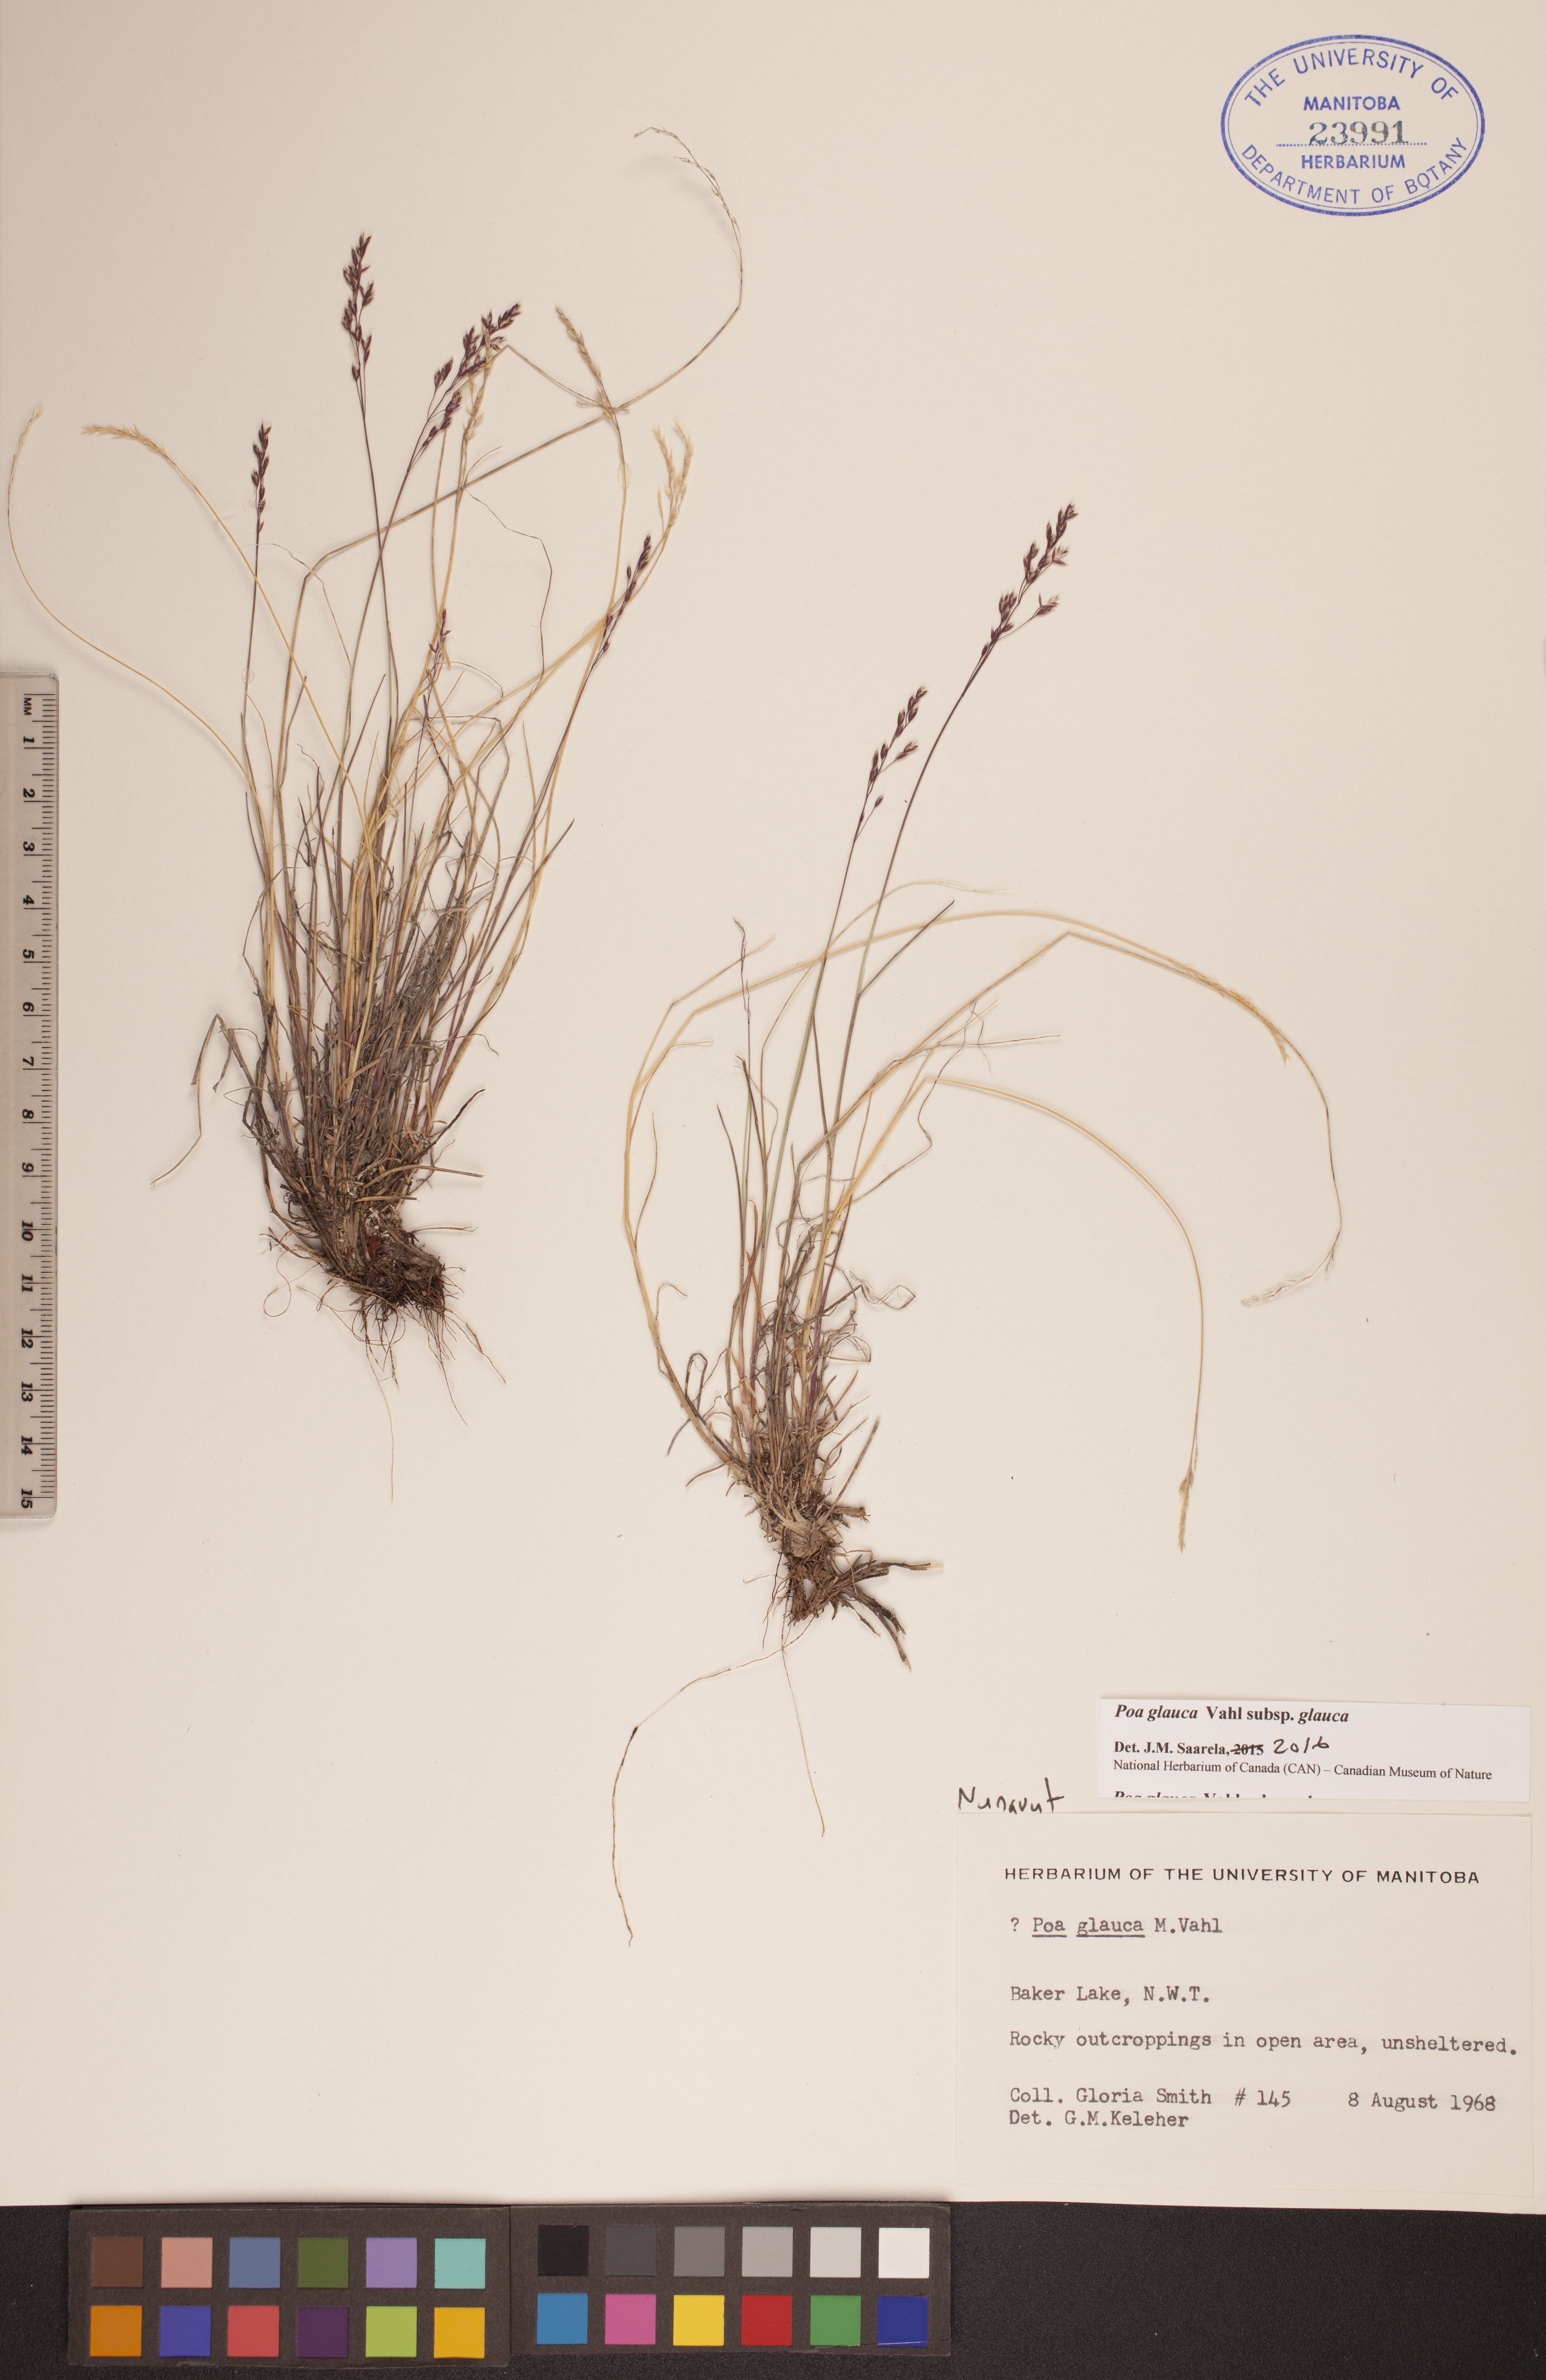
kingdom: Plantae
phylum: Tracheophyta
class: Liliopsida
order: Poales
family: Poaceae
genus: Poa
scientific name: Poa glauca
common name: Glaucous bluegrass
